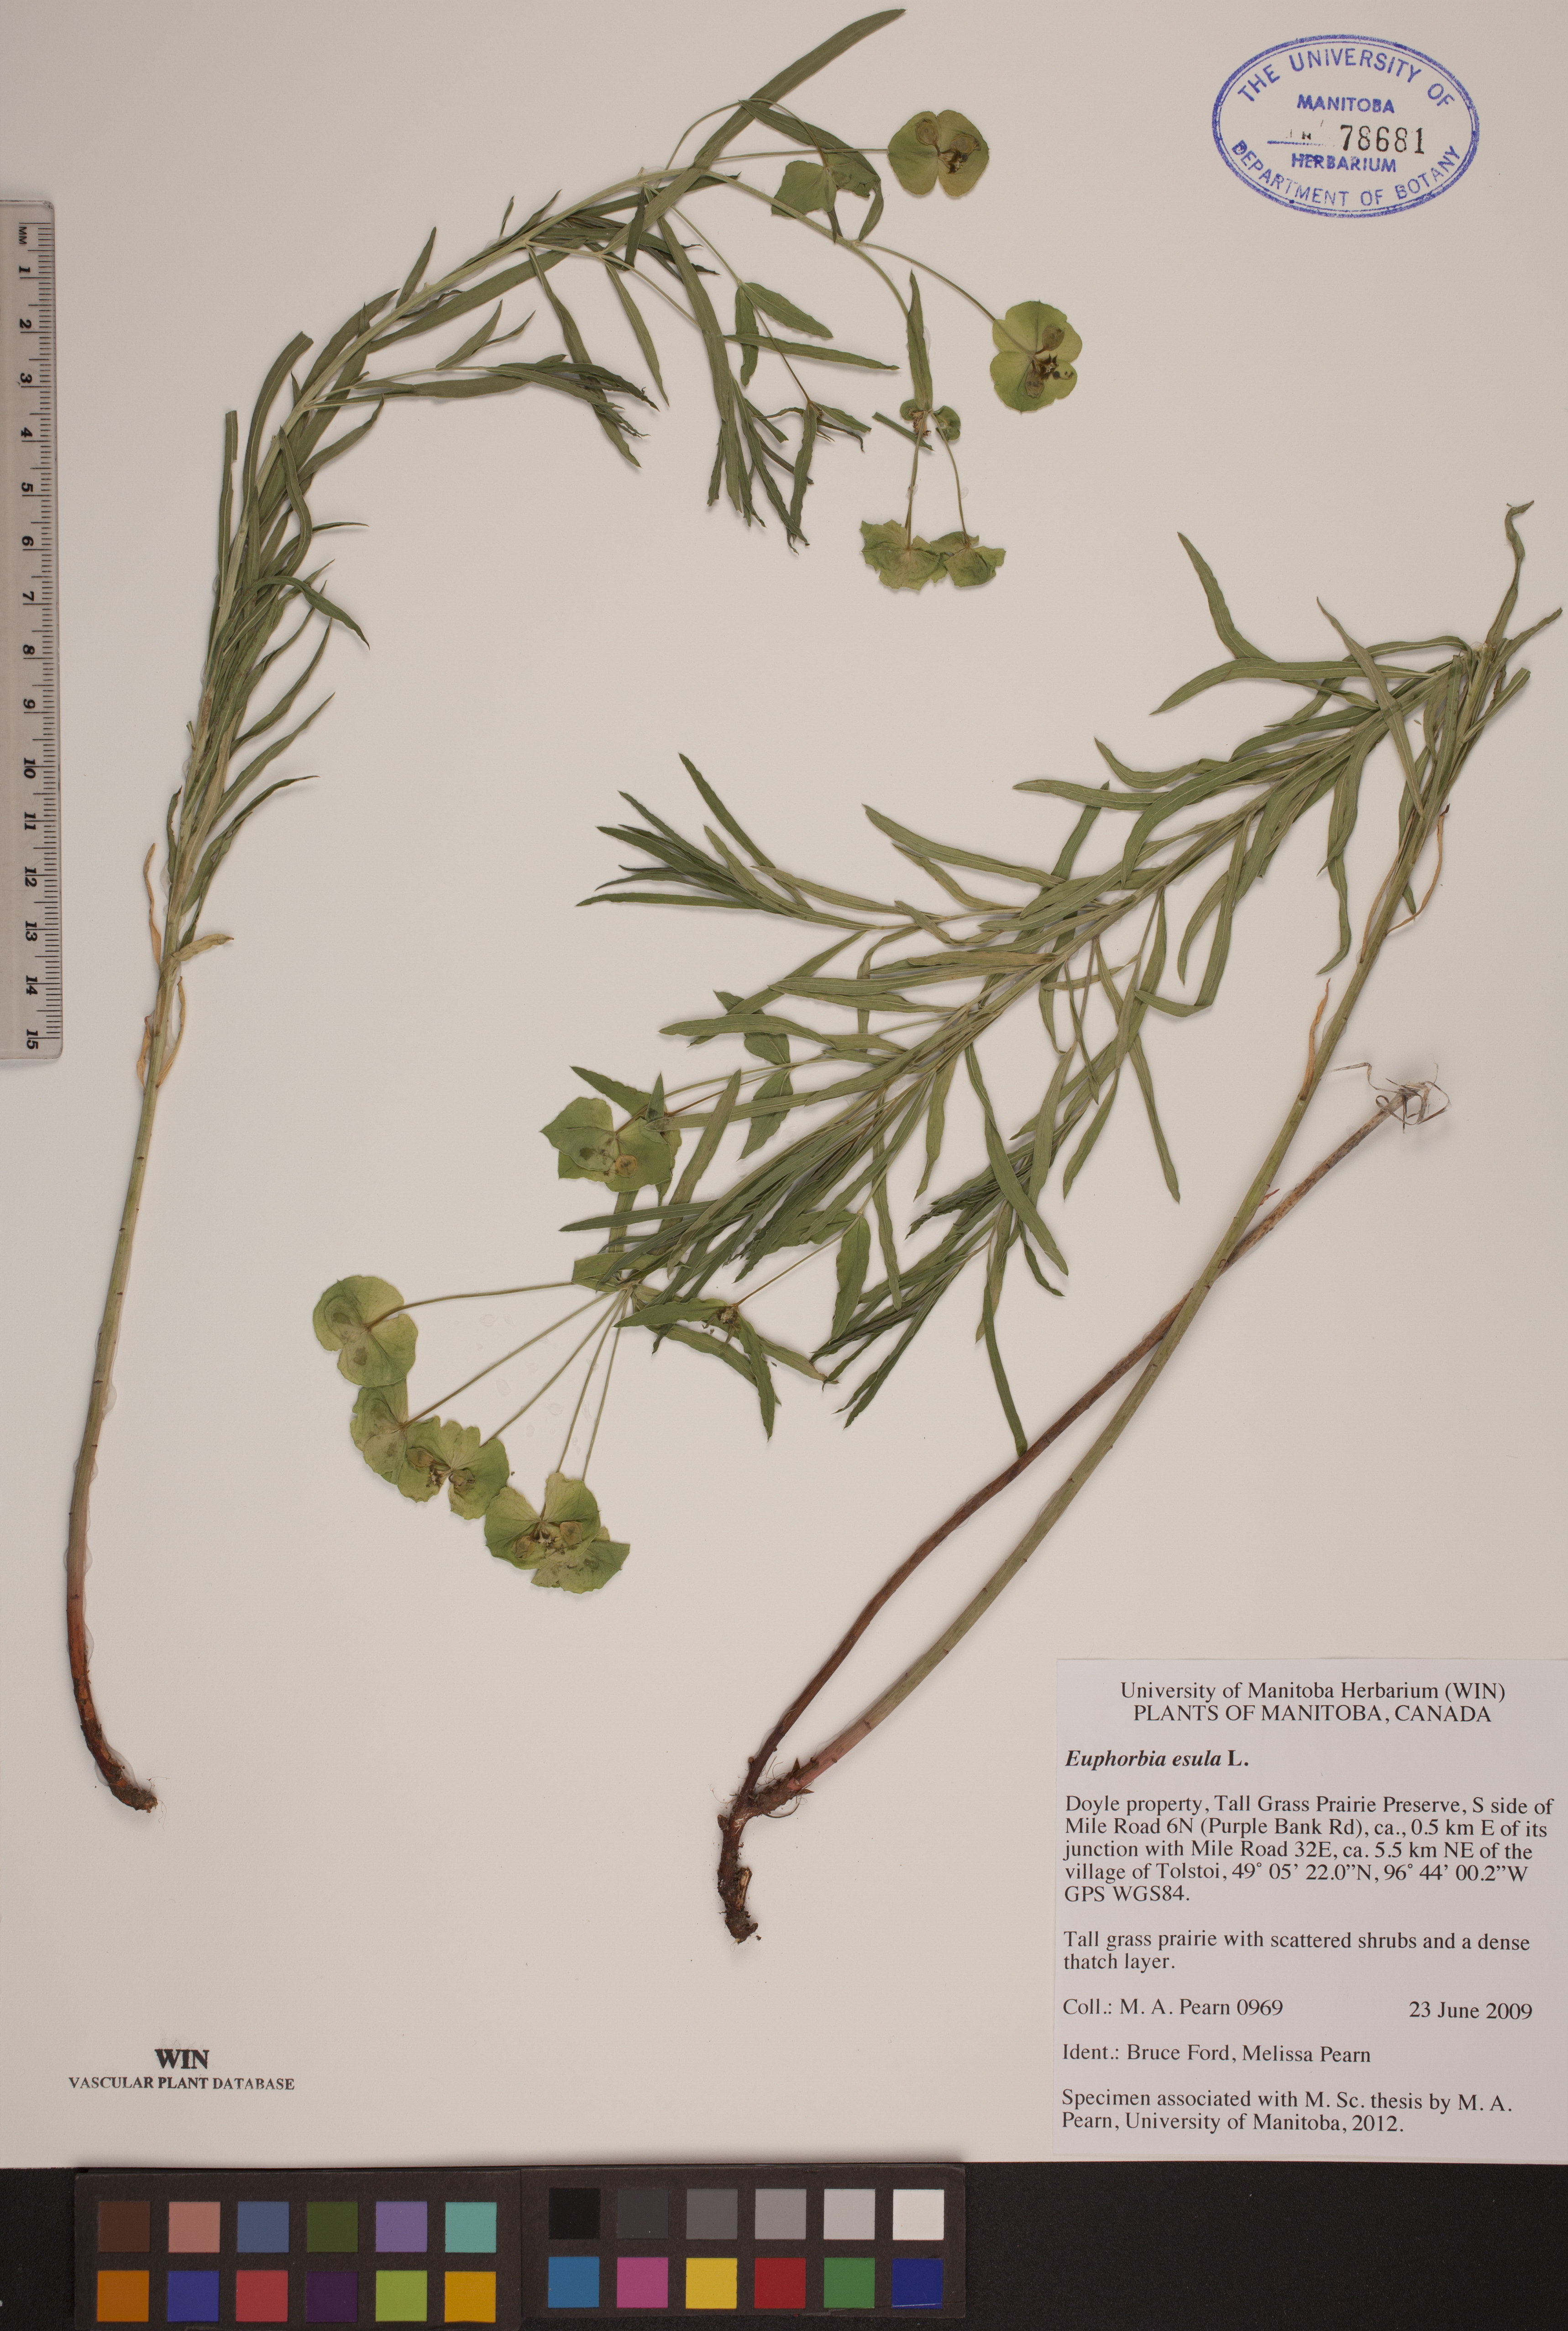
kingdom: Plantae
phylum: Tracheophyta
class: Magnoliopsida
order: Malpighiales
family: Euphorbiaceae
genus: Euphorbia
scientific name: Euphorbia esula
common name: Leafy spurge
